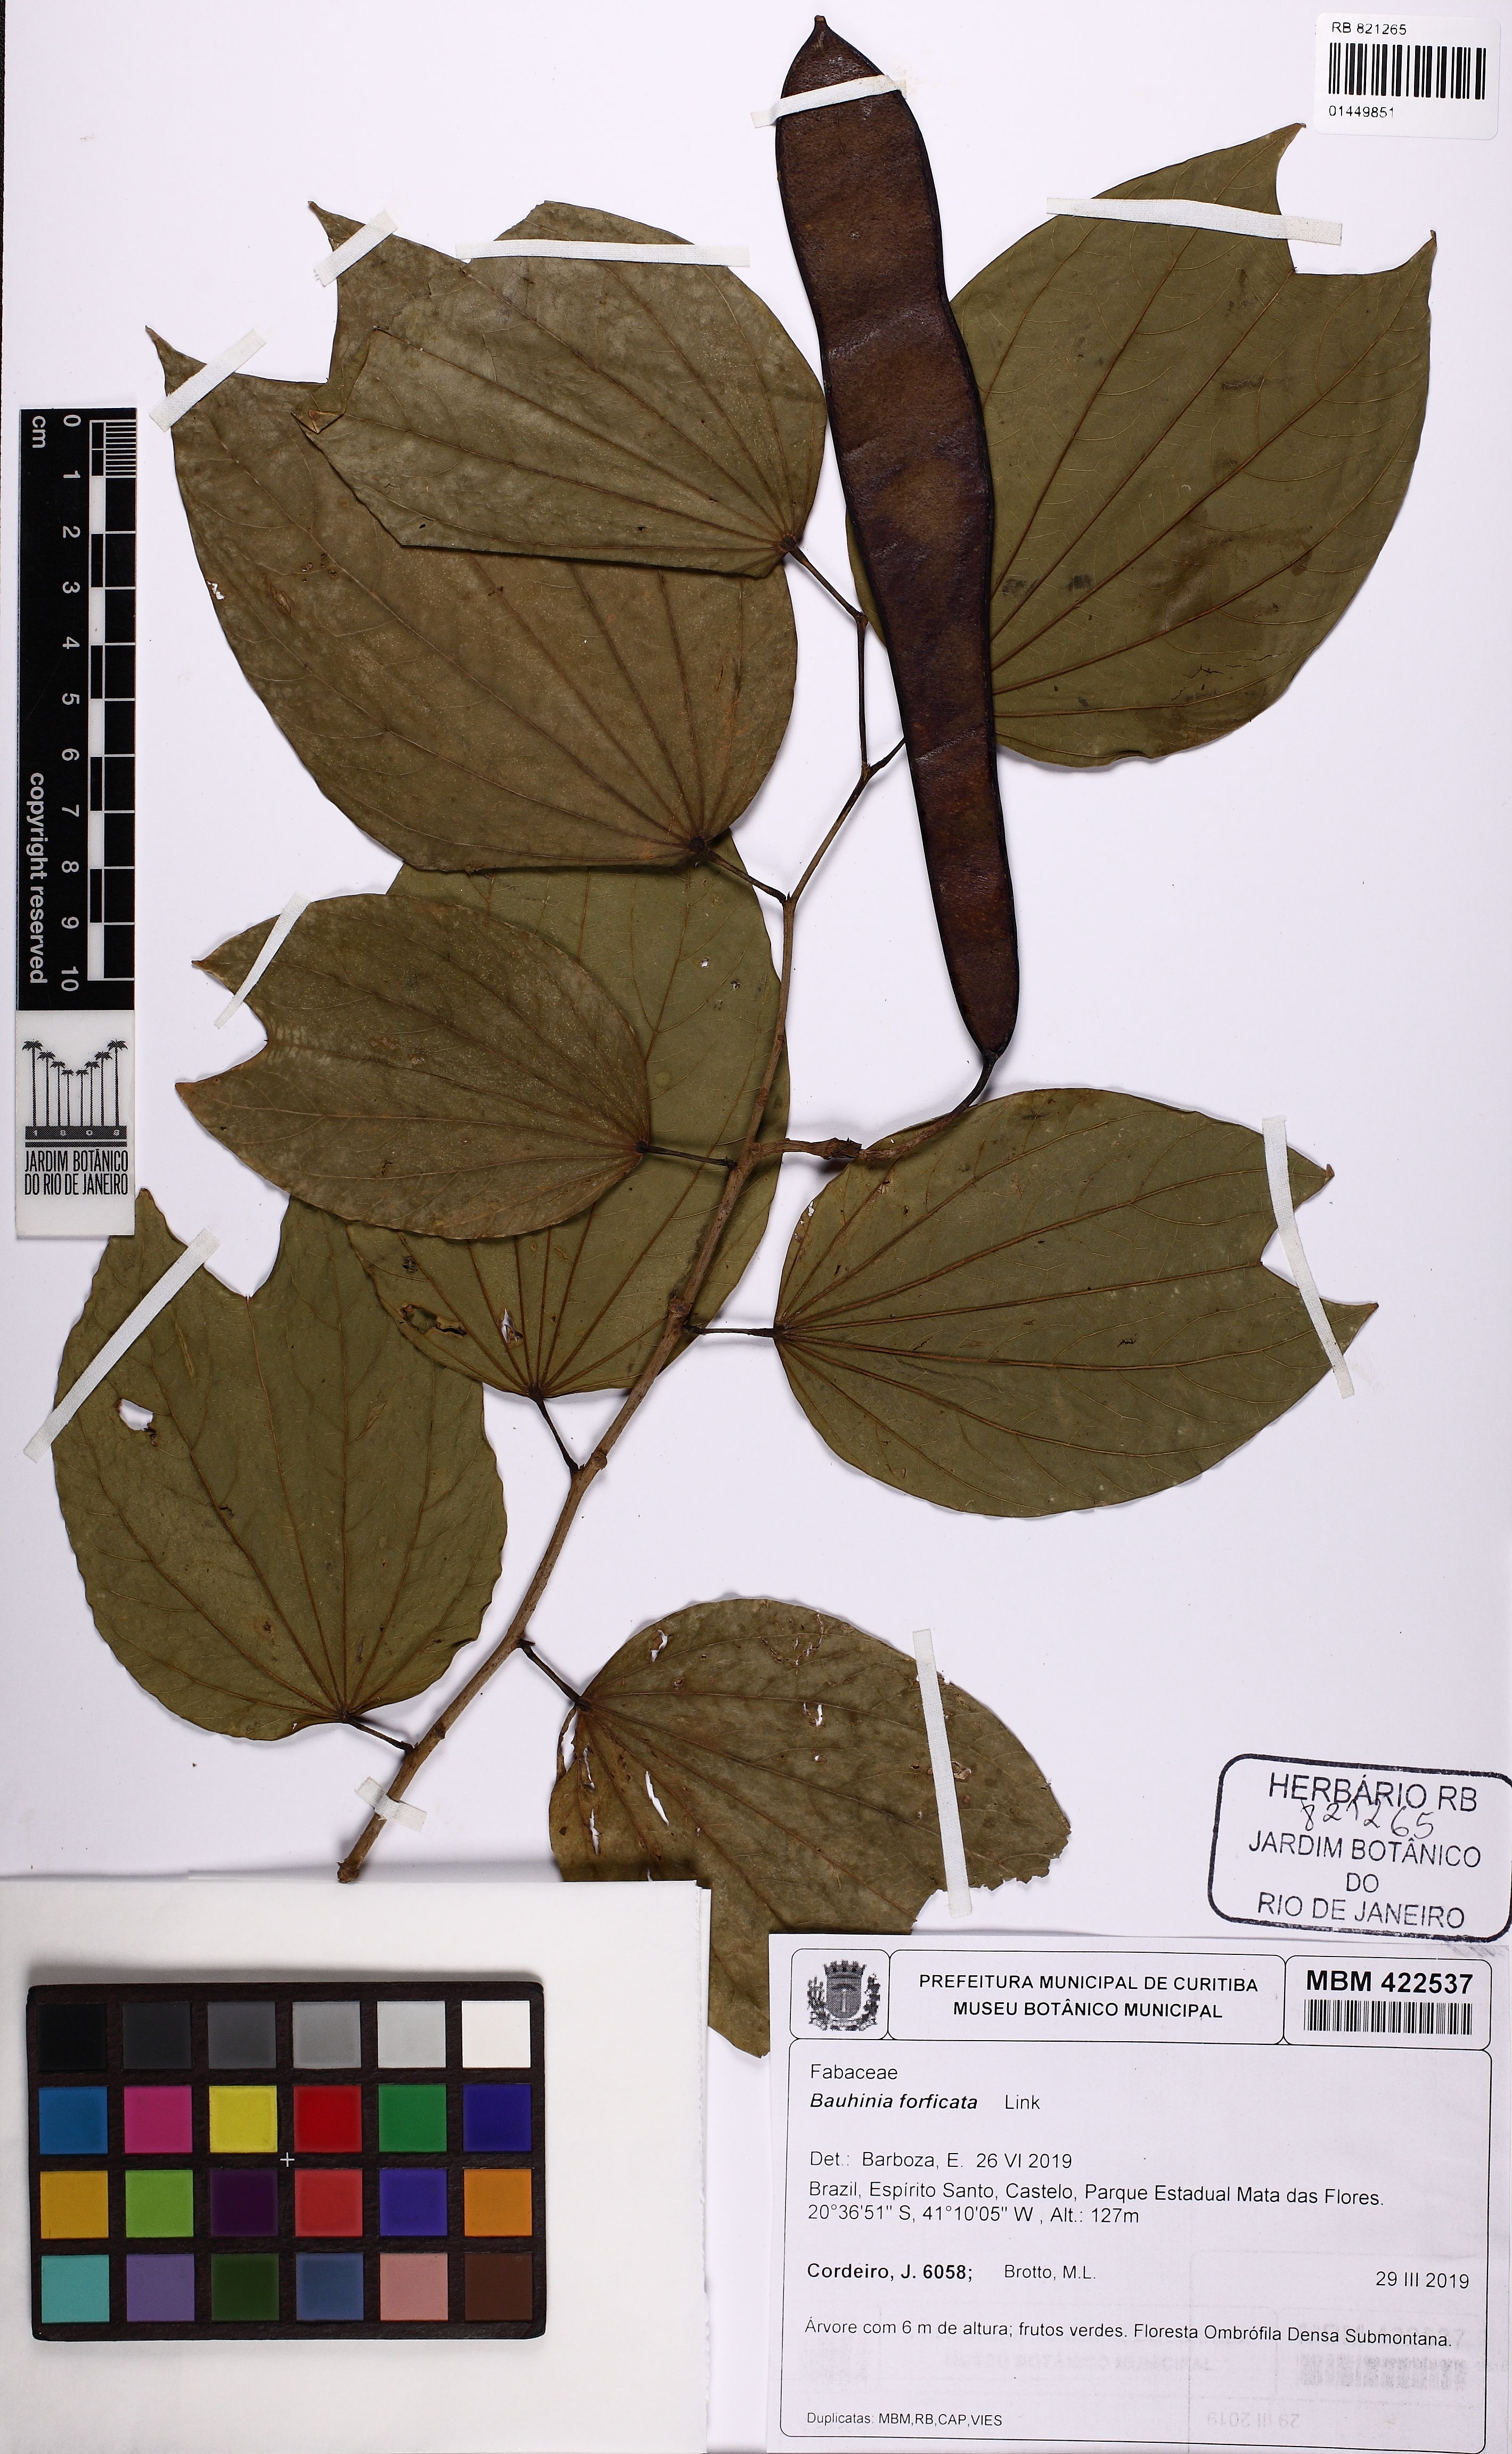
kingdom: Plantae
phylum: Tracheophyta
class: Magnoliopsida
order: Fabales
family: Fabaceae
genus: Bauhinia
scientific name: Bauhinia forficata
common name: Orchid tree
